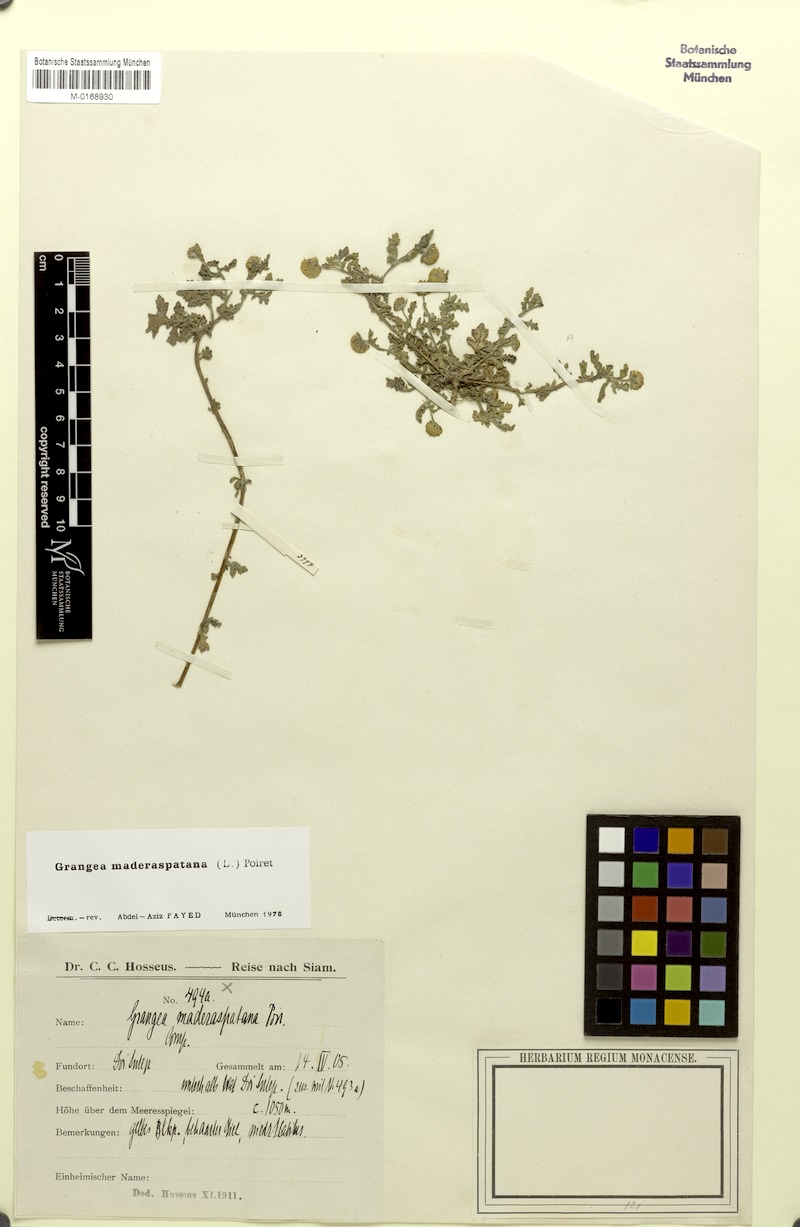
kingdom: Plantae
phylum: Tracheophyta
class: Magnoliopsida
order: Asterales
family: Asteraceae
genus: Grangea
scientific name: Grangea maderaspatana
